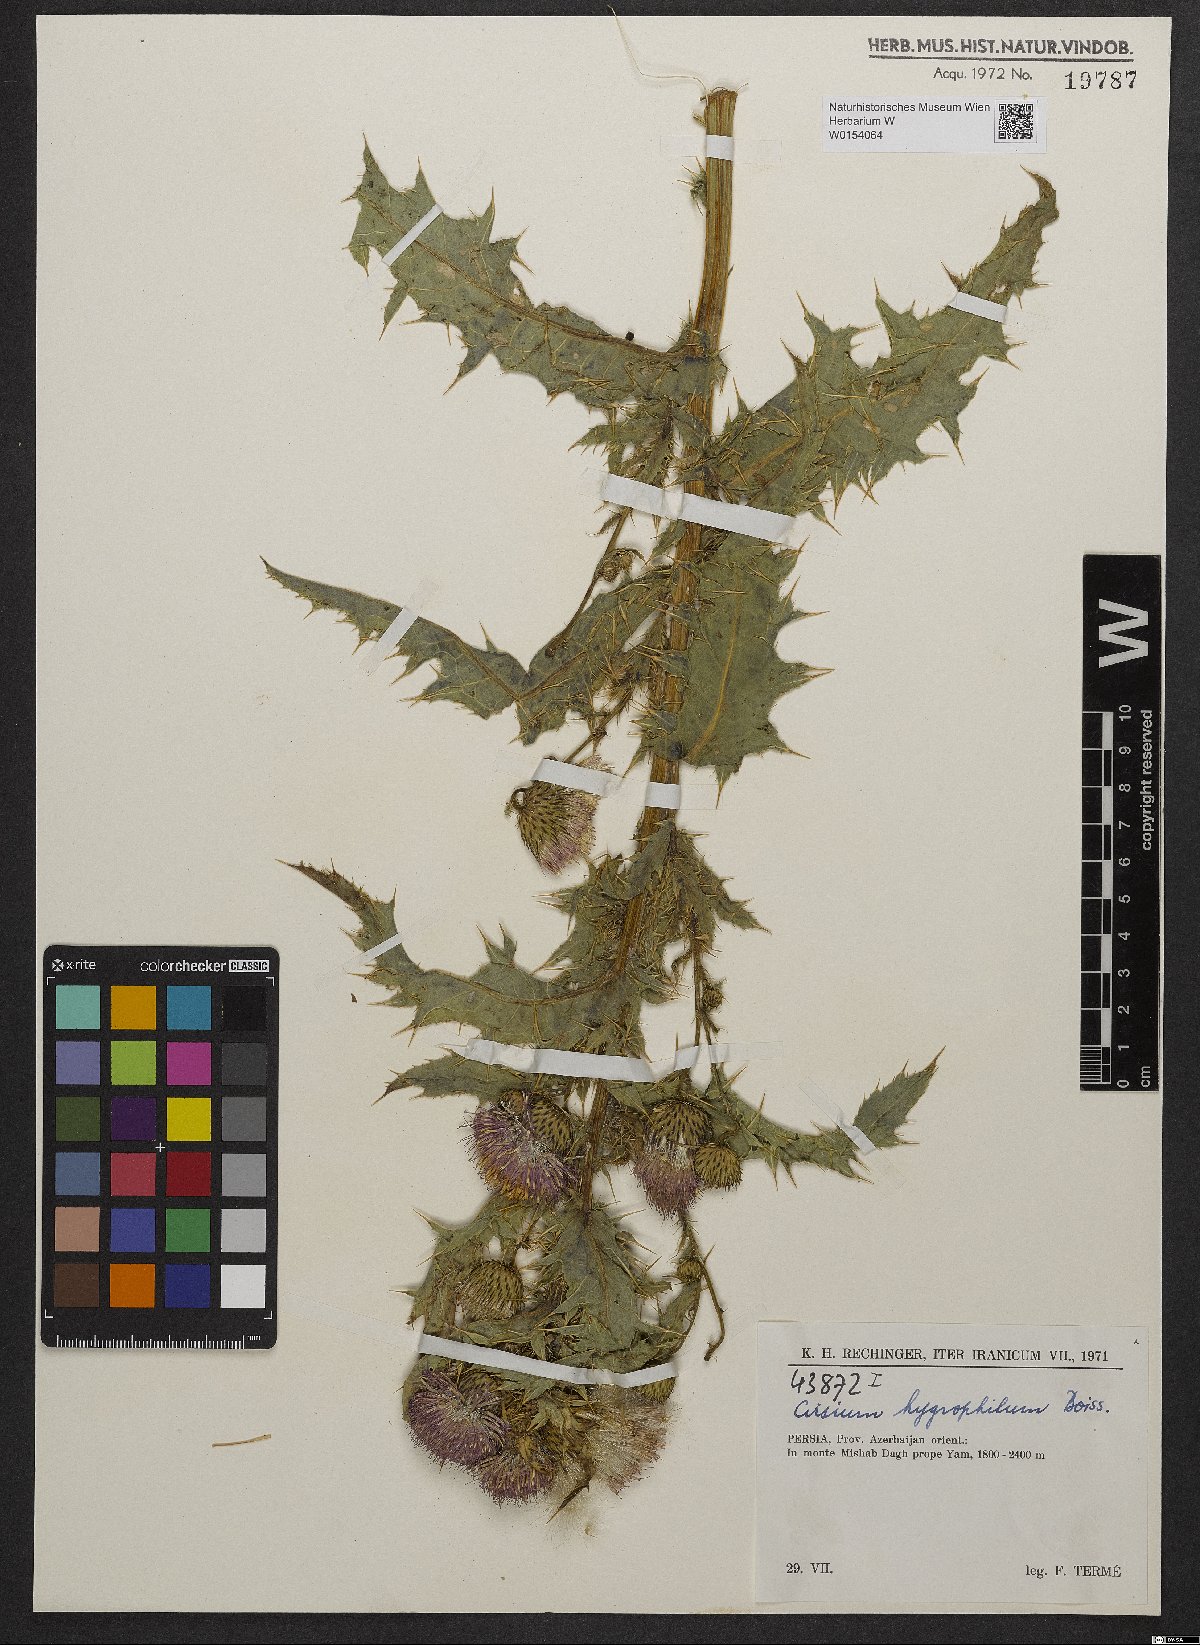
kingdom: Plantae
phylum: Tracheophyta
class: Magnoliopsida
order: Asterales
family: Asteraceae
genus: Cirsium
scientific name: Cirsium hygrophilum
